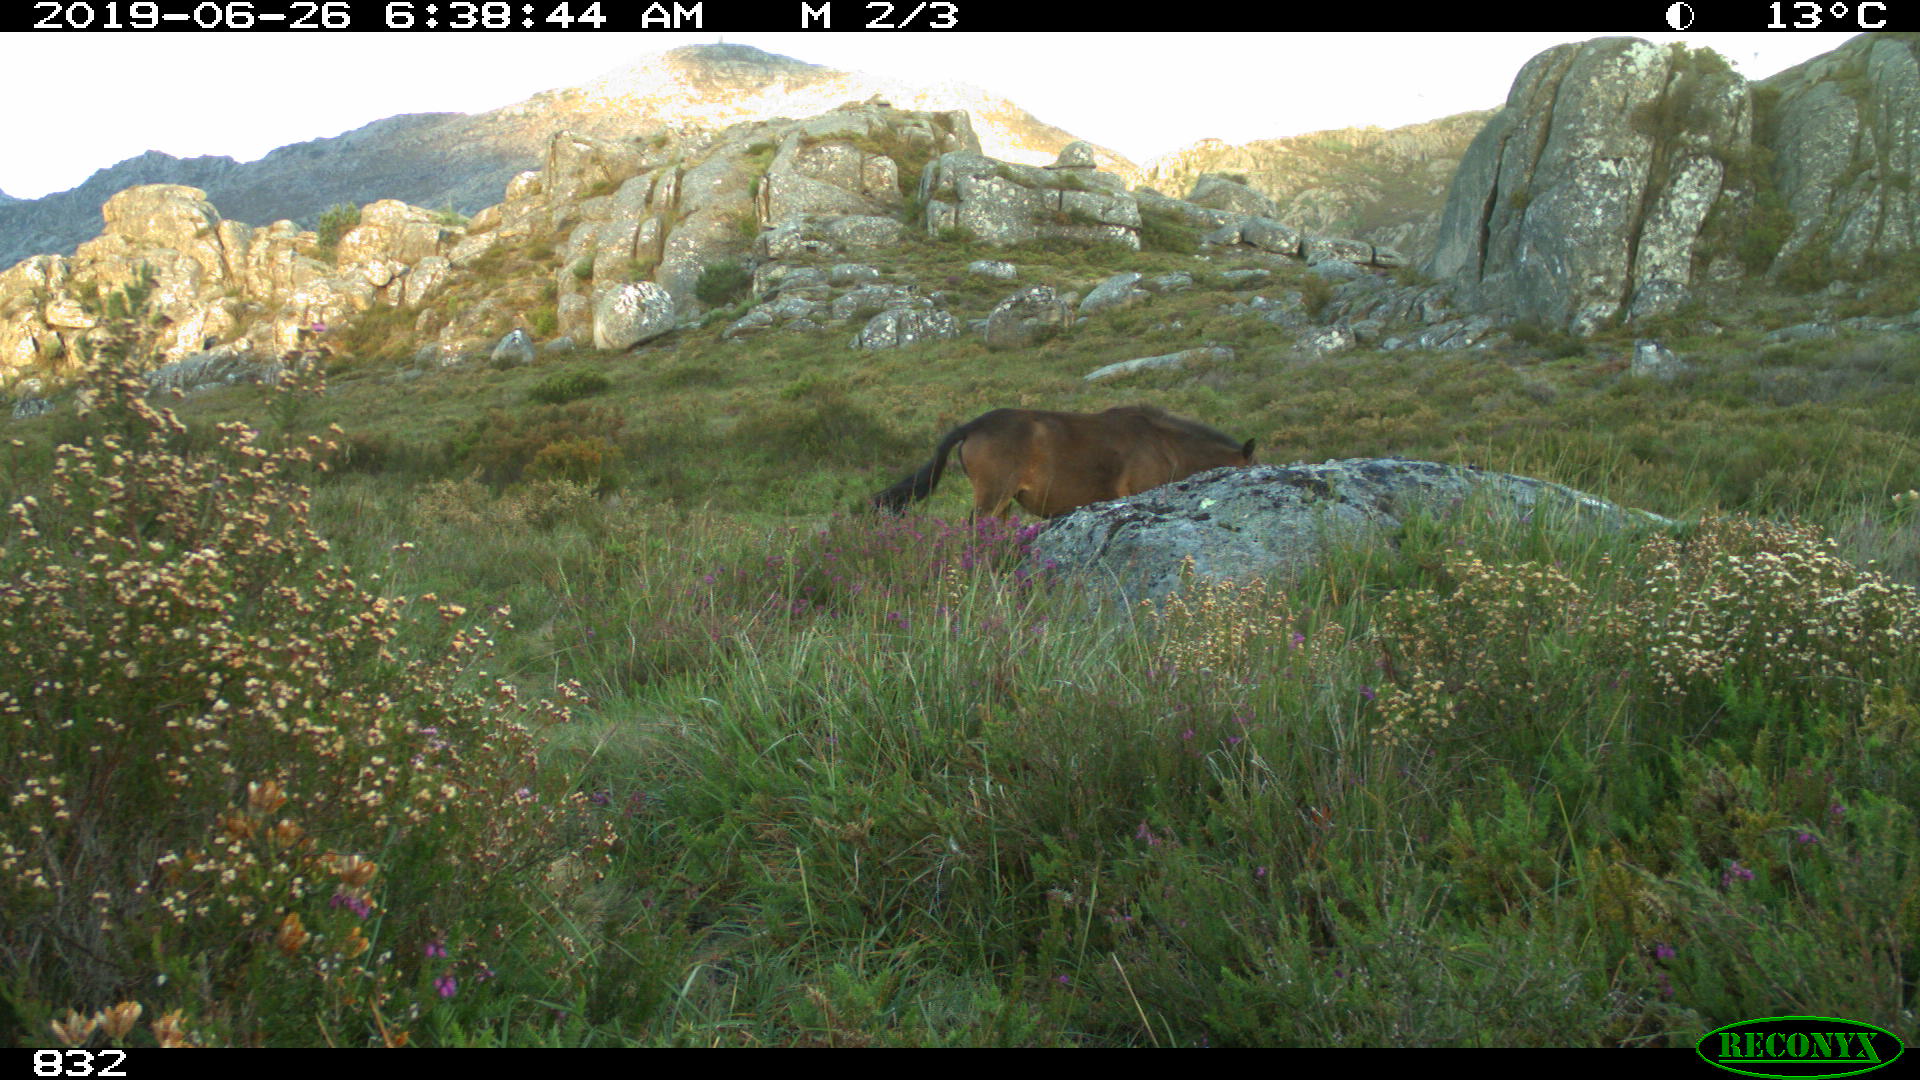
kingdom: Animalia
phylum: Chordata
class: Mammalia
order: Perissodactyla
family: Equidae
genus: Equus
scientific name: Equus caballus
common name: Horse
